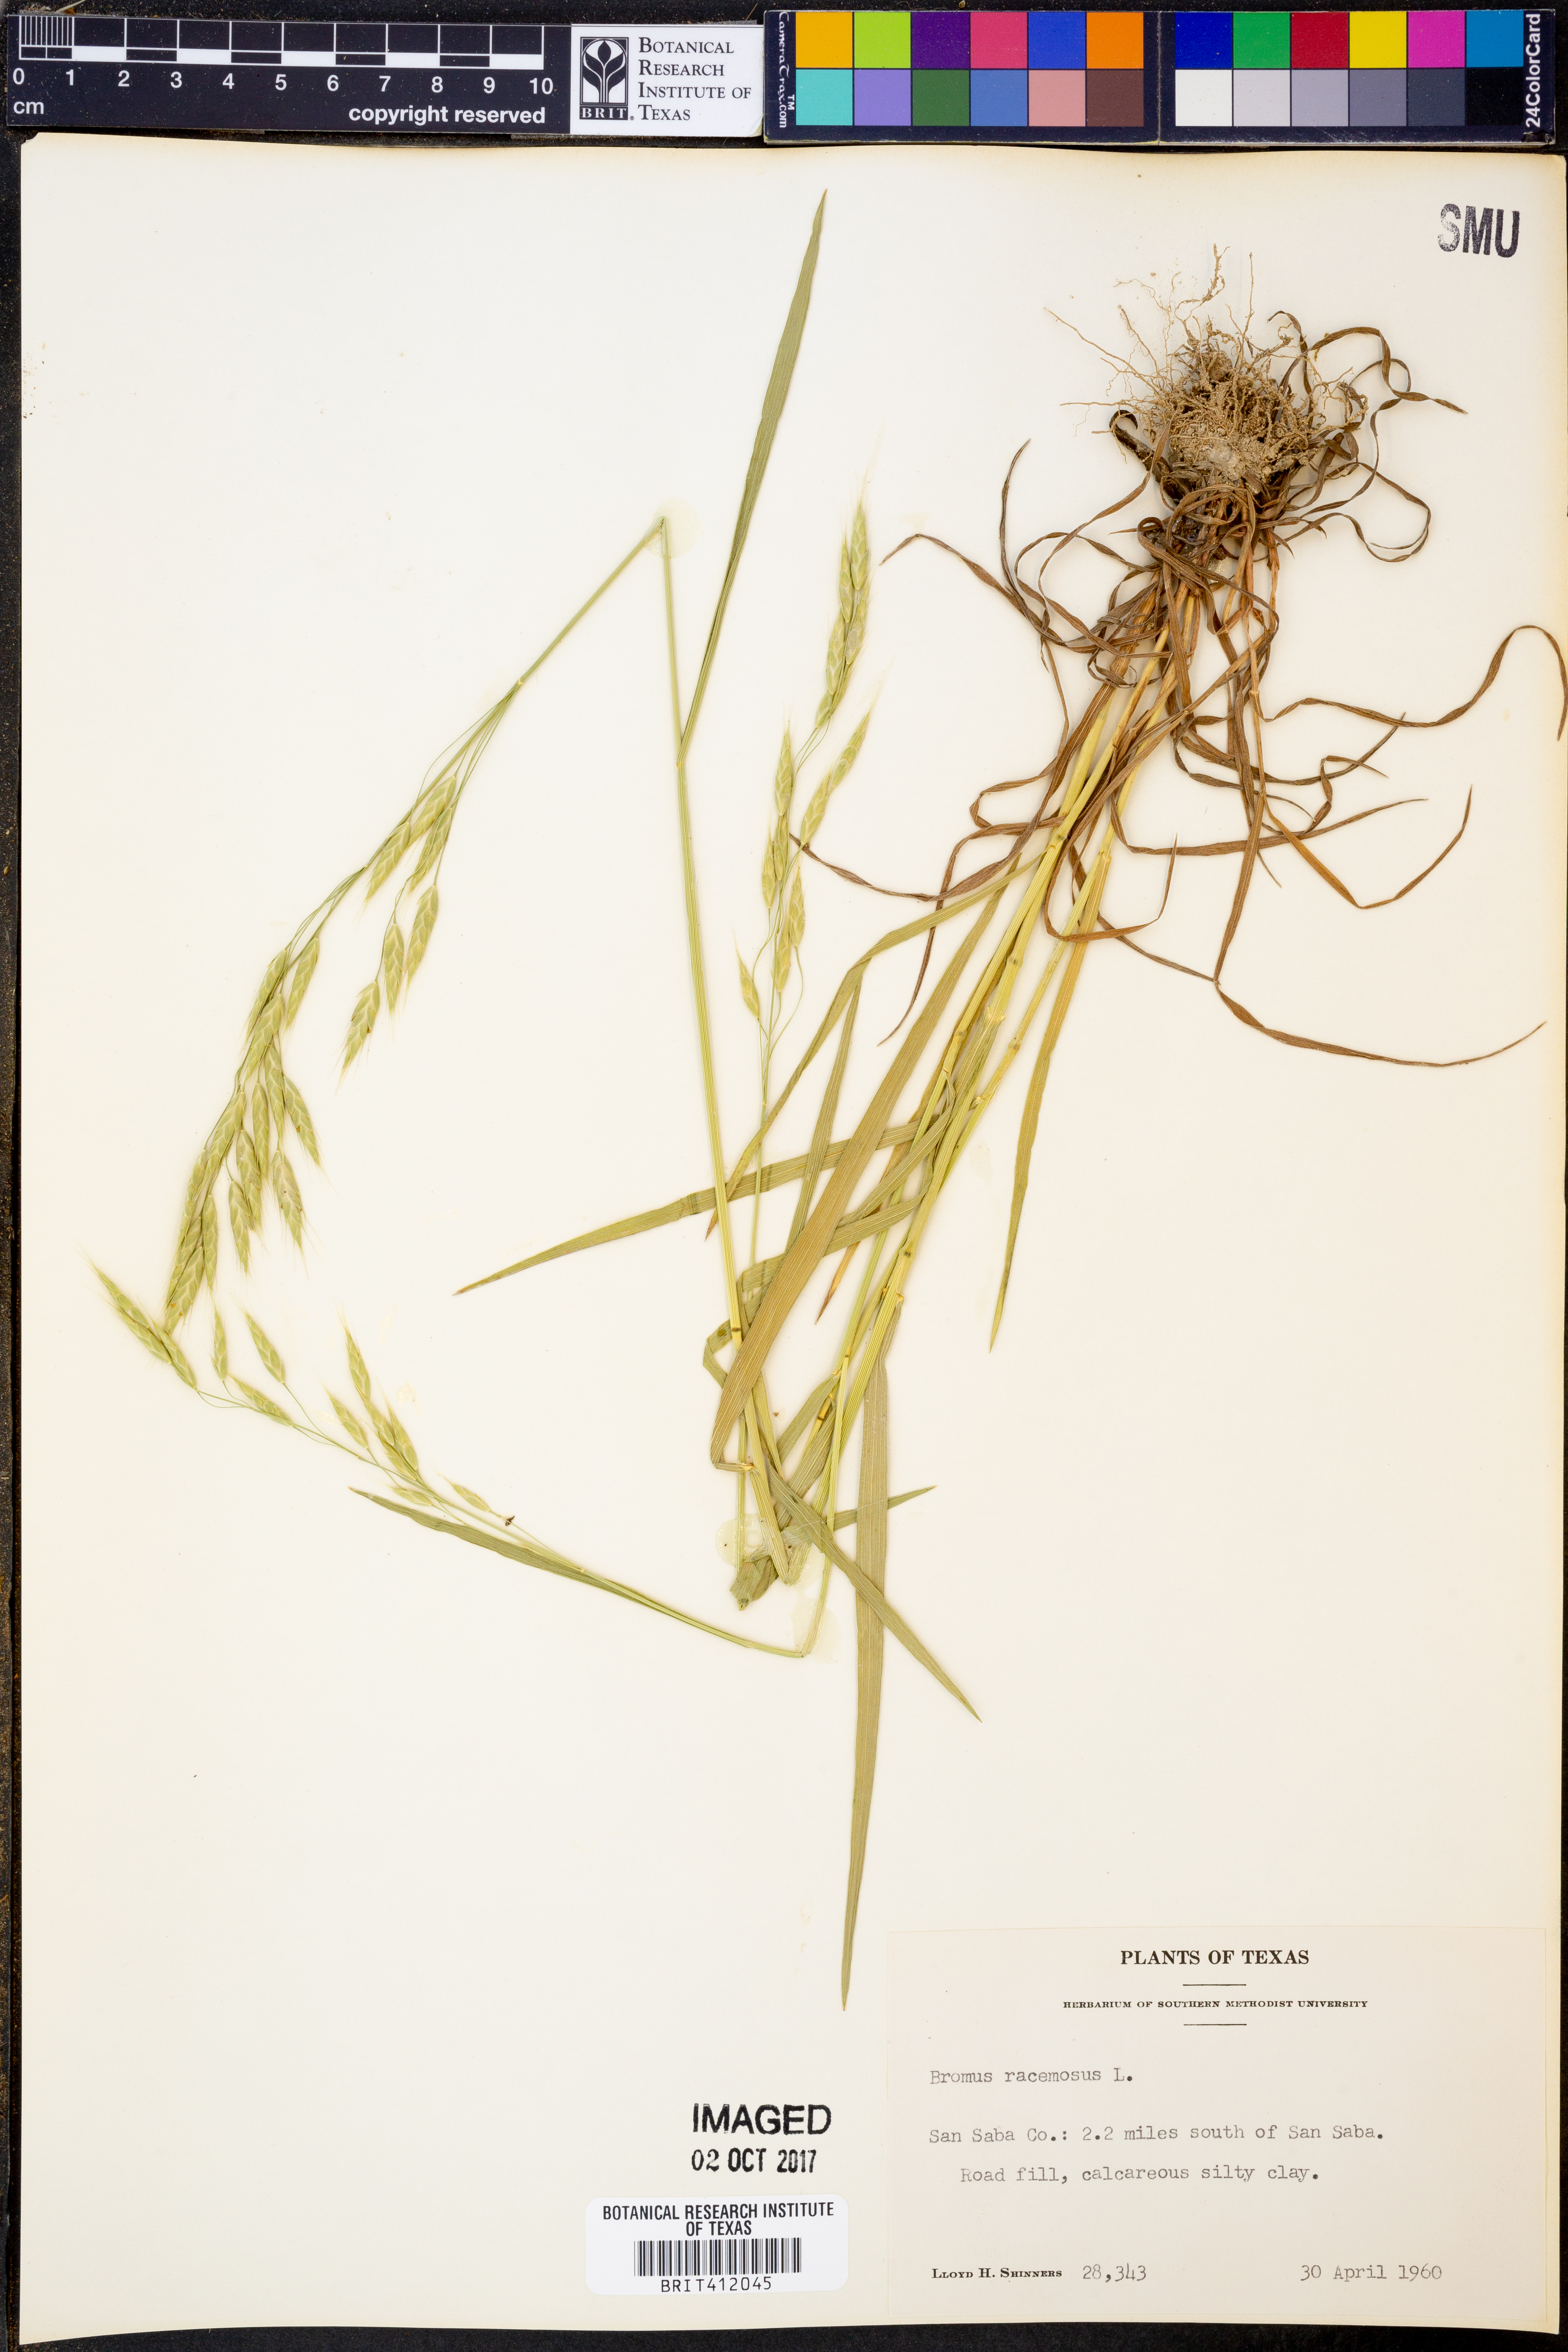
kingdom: Plantae
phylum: Tracheophyta
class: Liliopsida
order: Poales
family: Poaceae
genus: Bromus
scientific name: Bromus racemosus
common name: Bald brome
